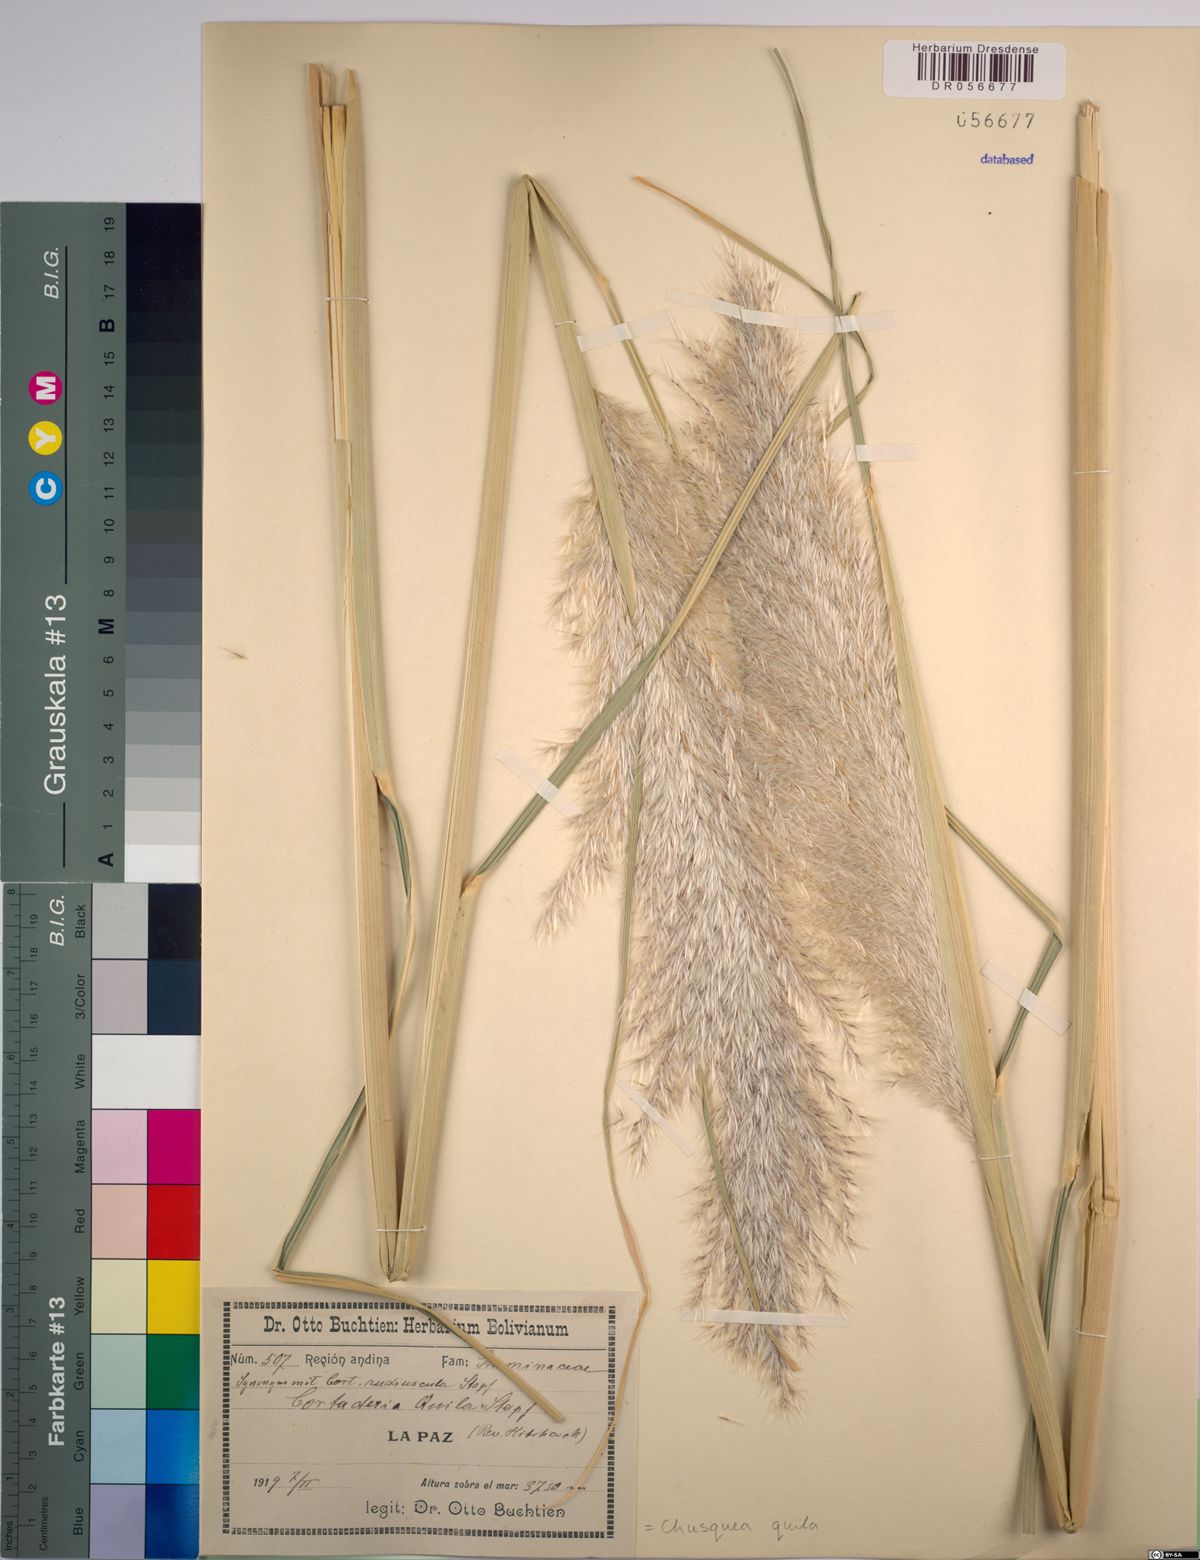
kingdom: Plantae
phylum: Tracheophyta
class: Liliopsida
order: Poales
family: Poaceae
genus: Chusquea
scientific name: Chusquea quila
